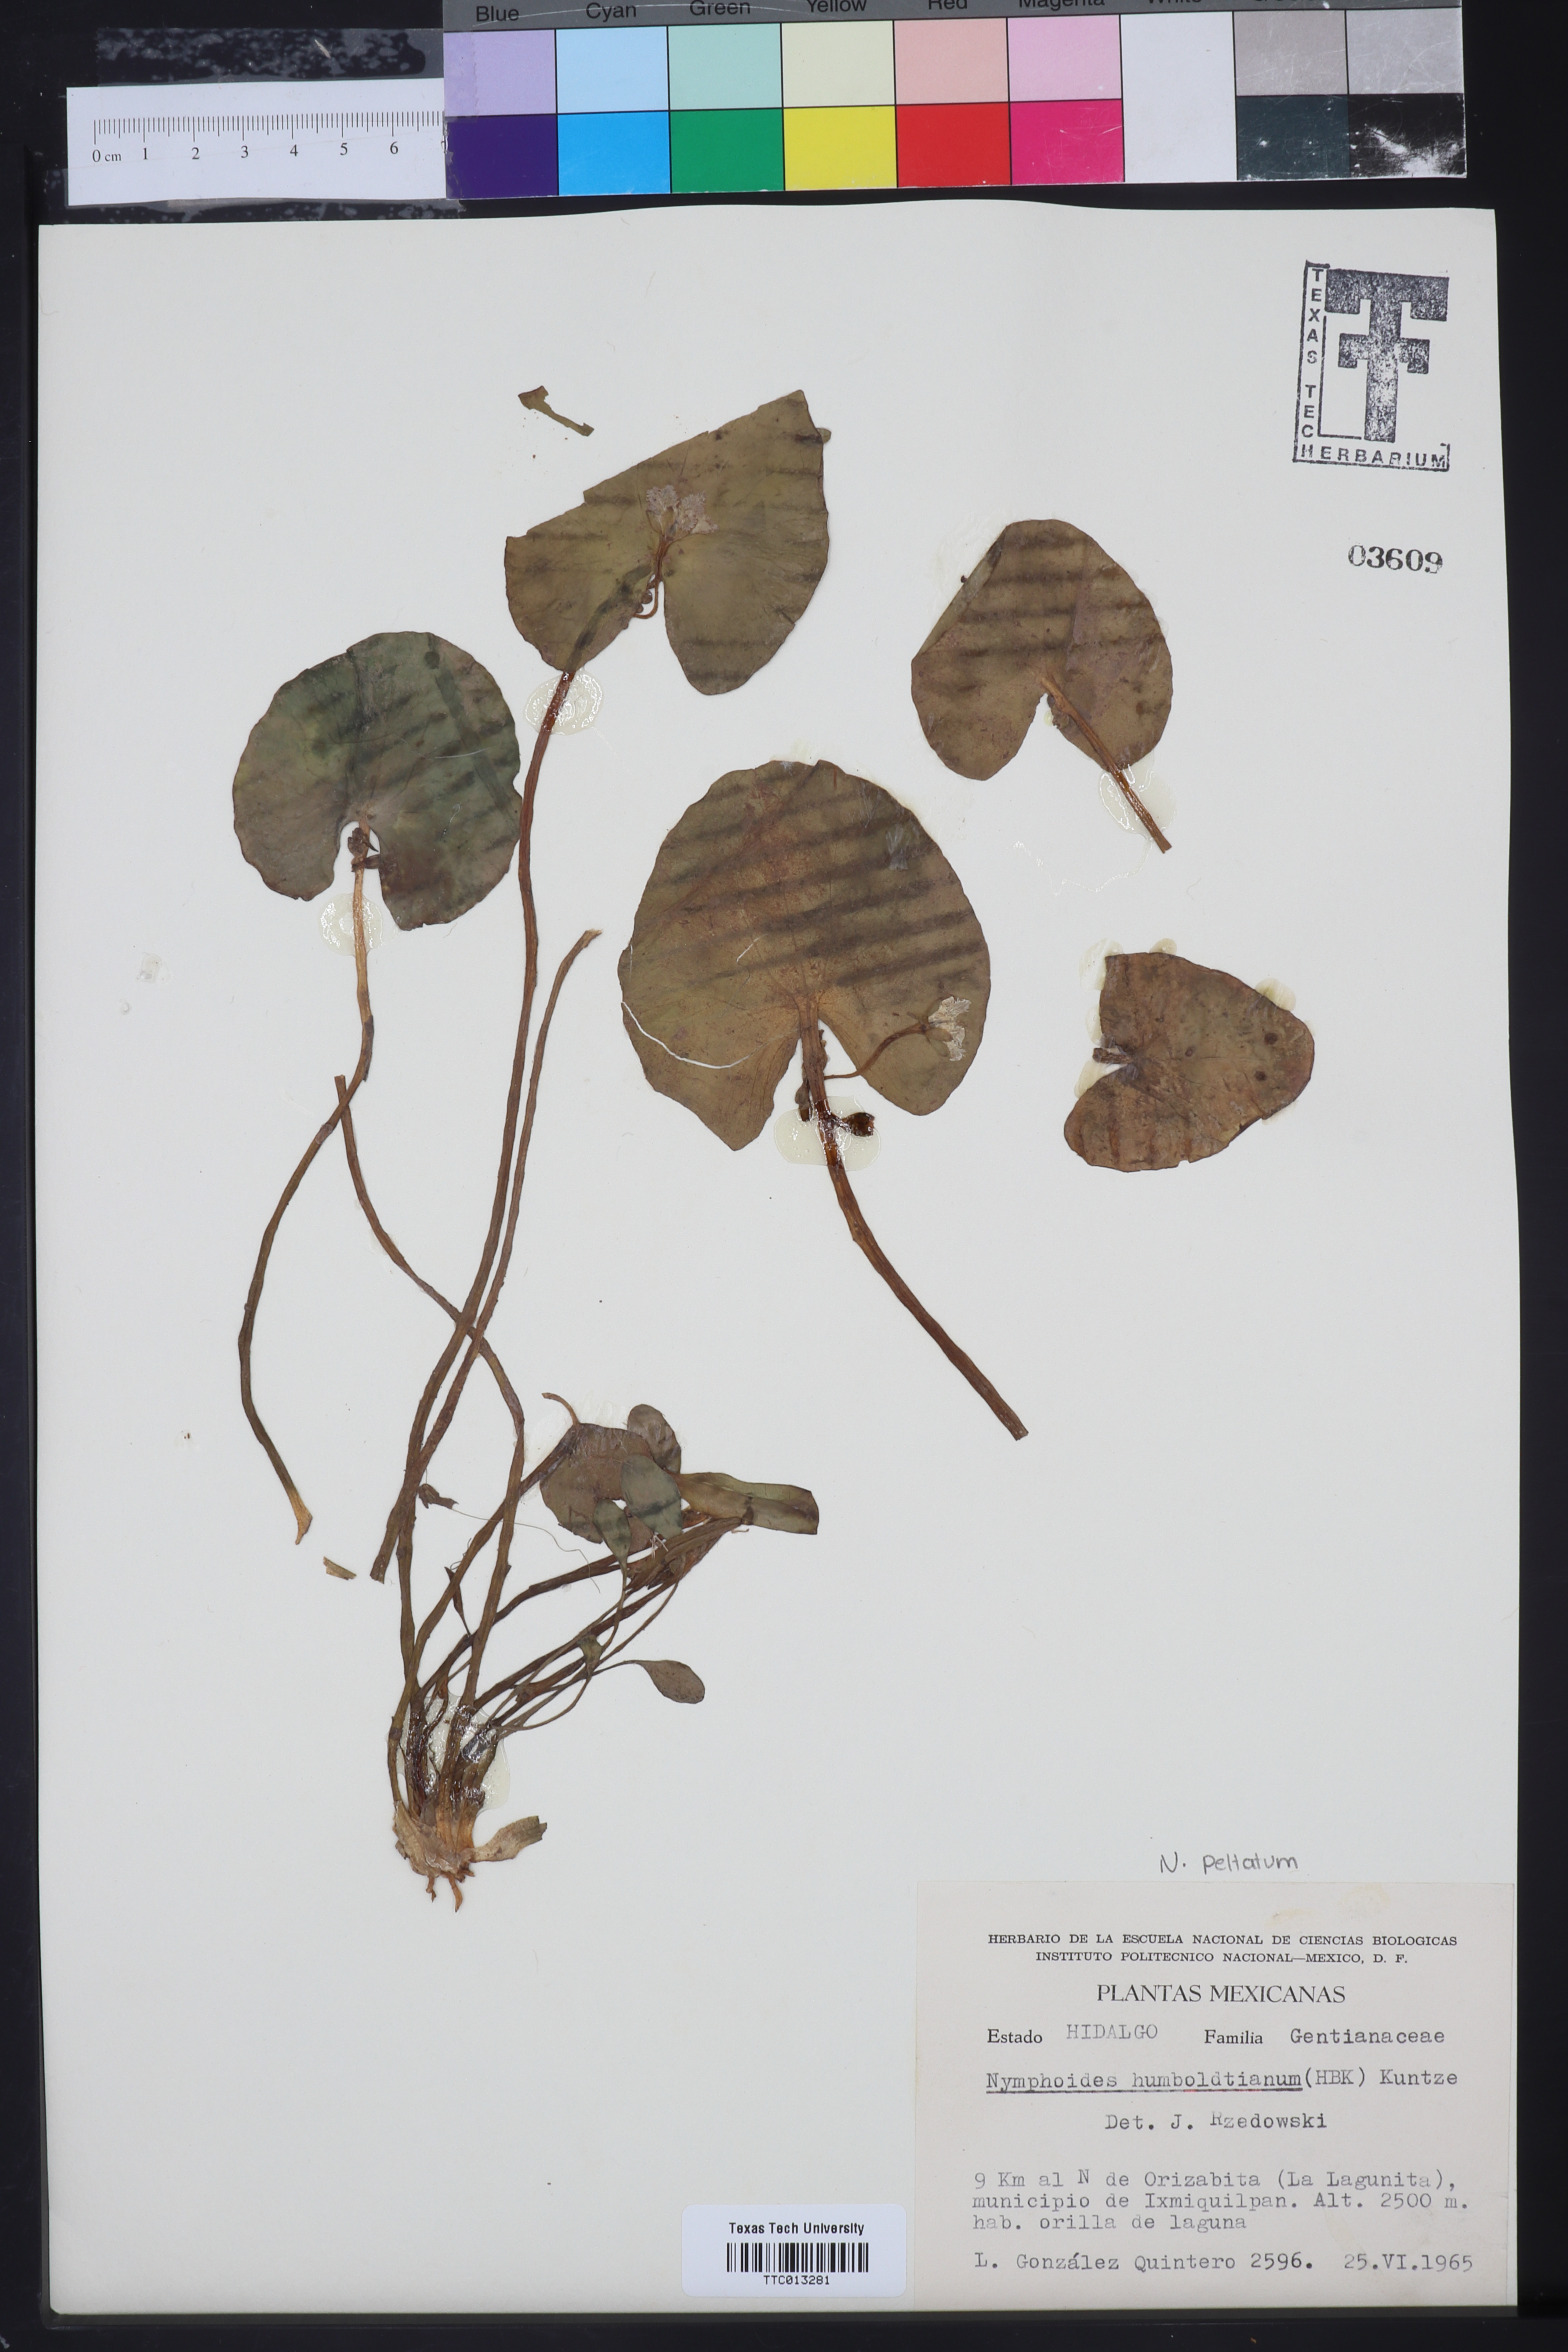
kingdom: Plantae
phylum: Tracheophyta
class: Magnoliopsida
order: Asterales
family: Menyanthaceae
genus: Nymphoides
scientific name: Nymphoides humboldtiana
